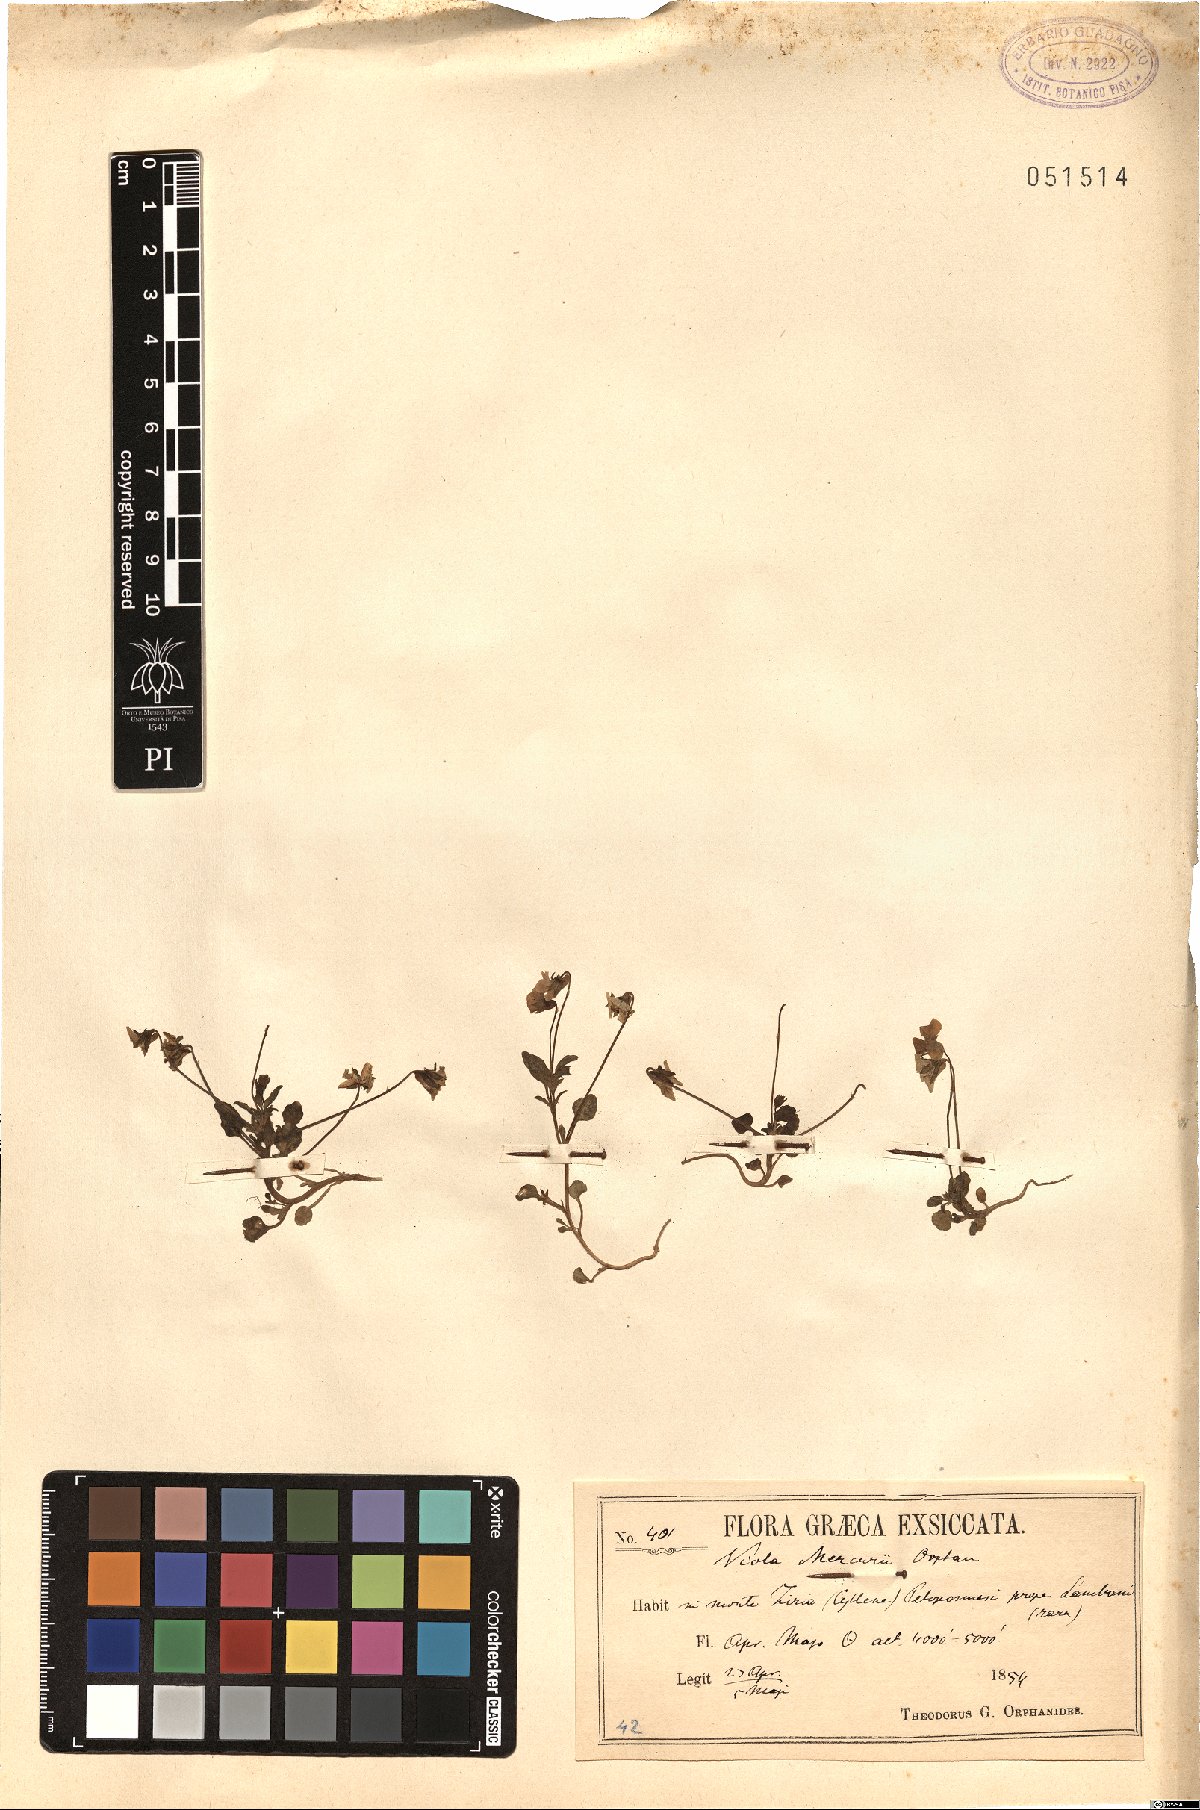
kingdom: Plantae
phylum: Tracheophyta
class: Magnoliopsida
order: Malpighiales
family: Violaceae
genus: Viola
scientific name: Viola mercurii
